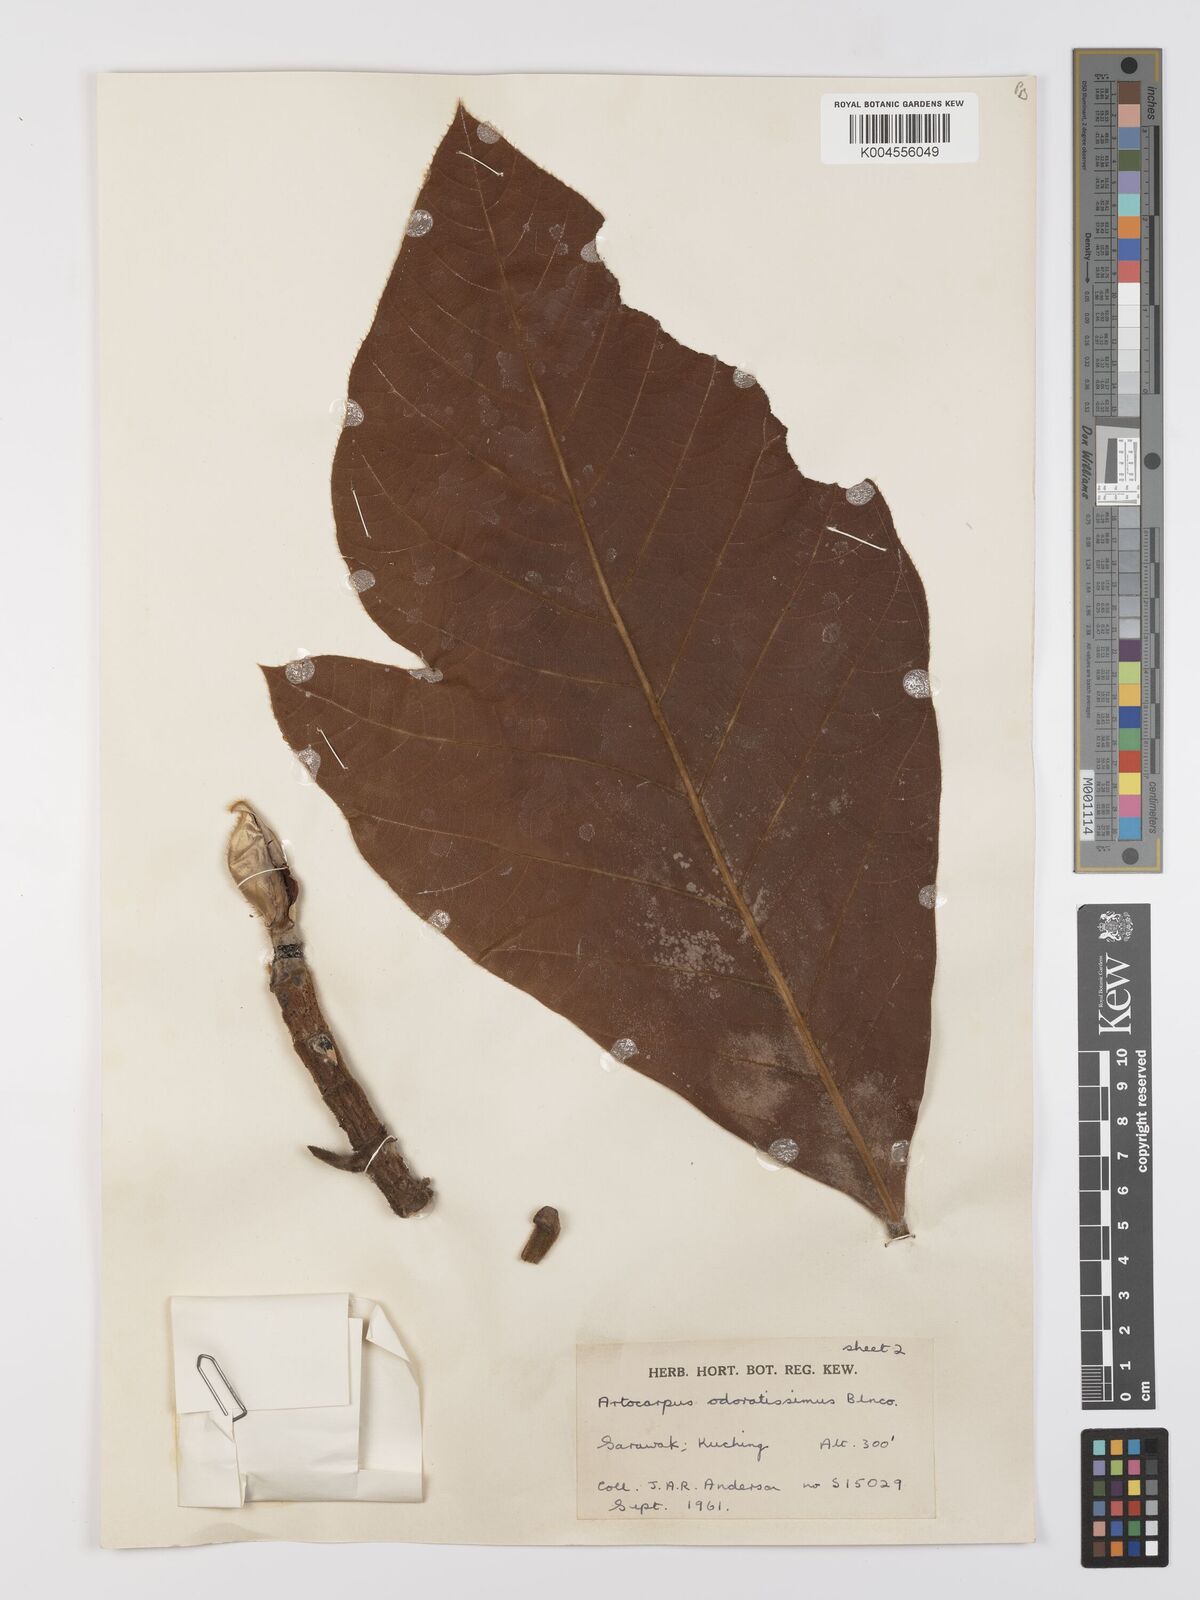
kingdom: Plantae
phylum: Tracheophyta
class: Magnoliopsida
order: Rosales
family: Moraceae
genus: Artocarpus
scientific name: Artocarpus odoratissimus
